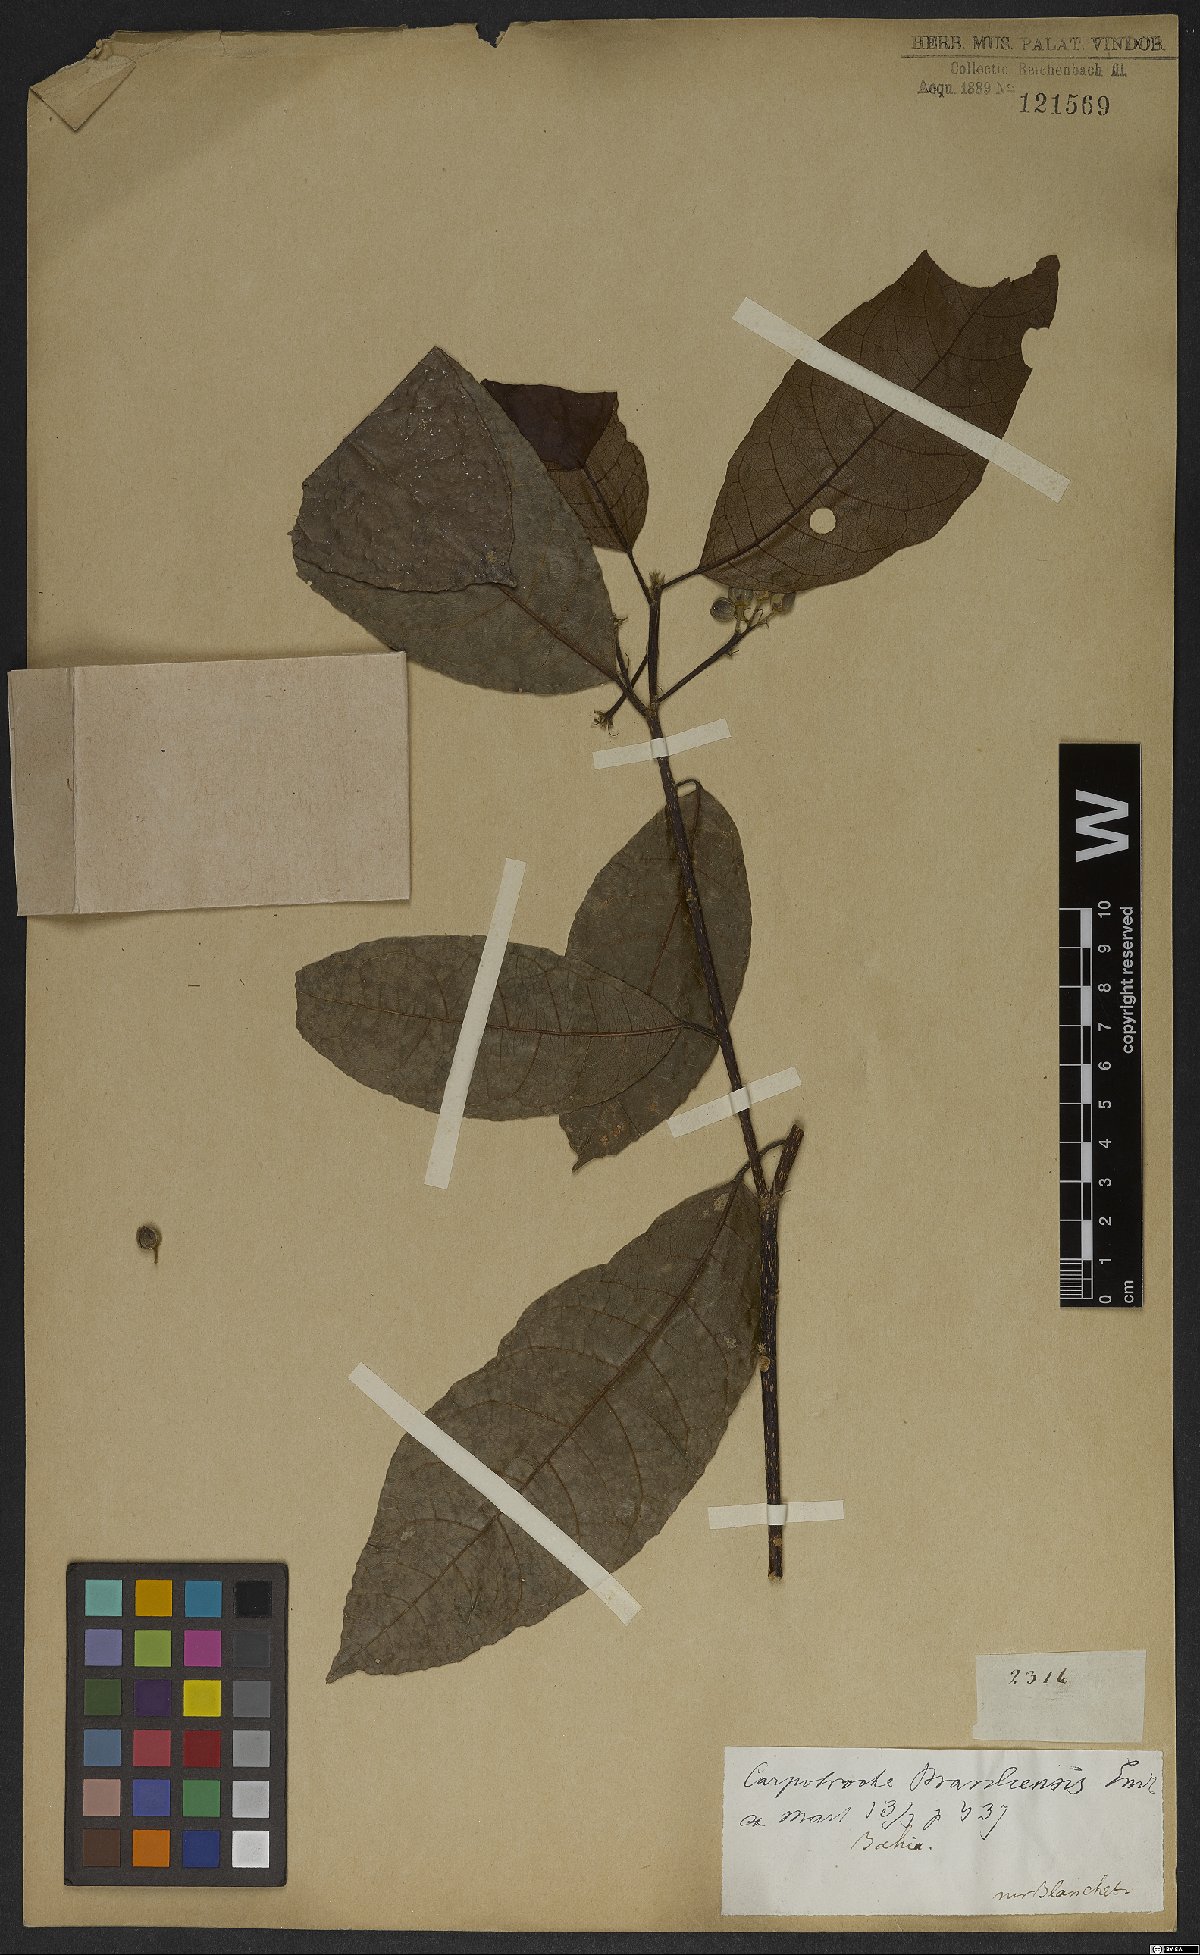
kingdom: Plantae
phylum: Tracheophyta
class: Magnoliopsida
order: Malpighiales
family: Achariaceae
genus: Carpotroche
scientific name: Carpotroche brasiliensis
